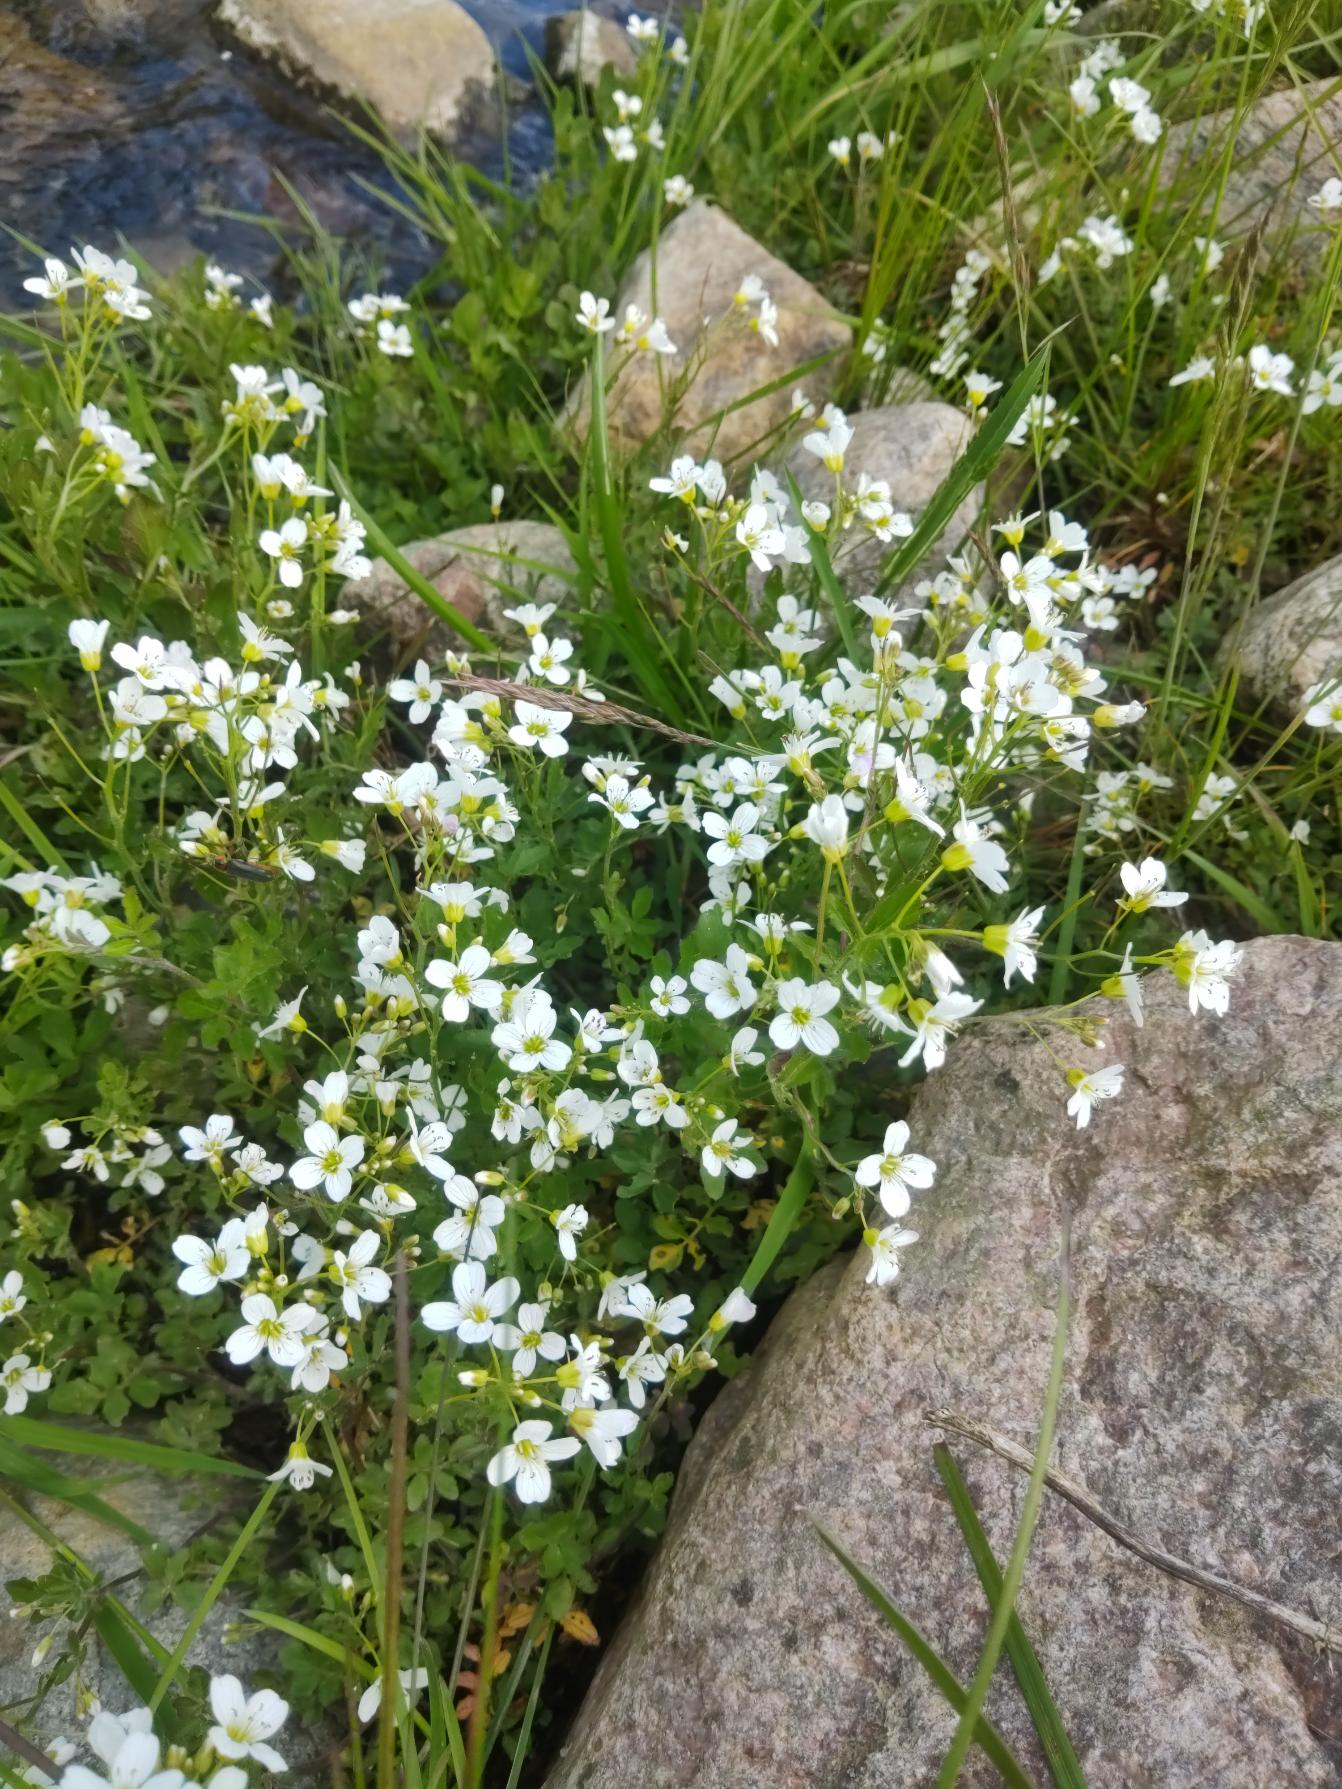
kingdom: Plantae
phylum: Tracheophyta
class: Magnoliopsida
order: Brassicales
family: Brassicaceae
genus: Cardamine
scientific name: Cardamine amara
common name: Vandkarse
